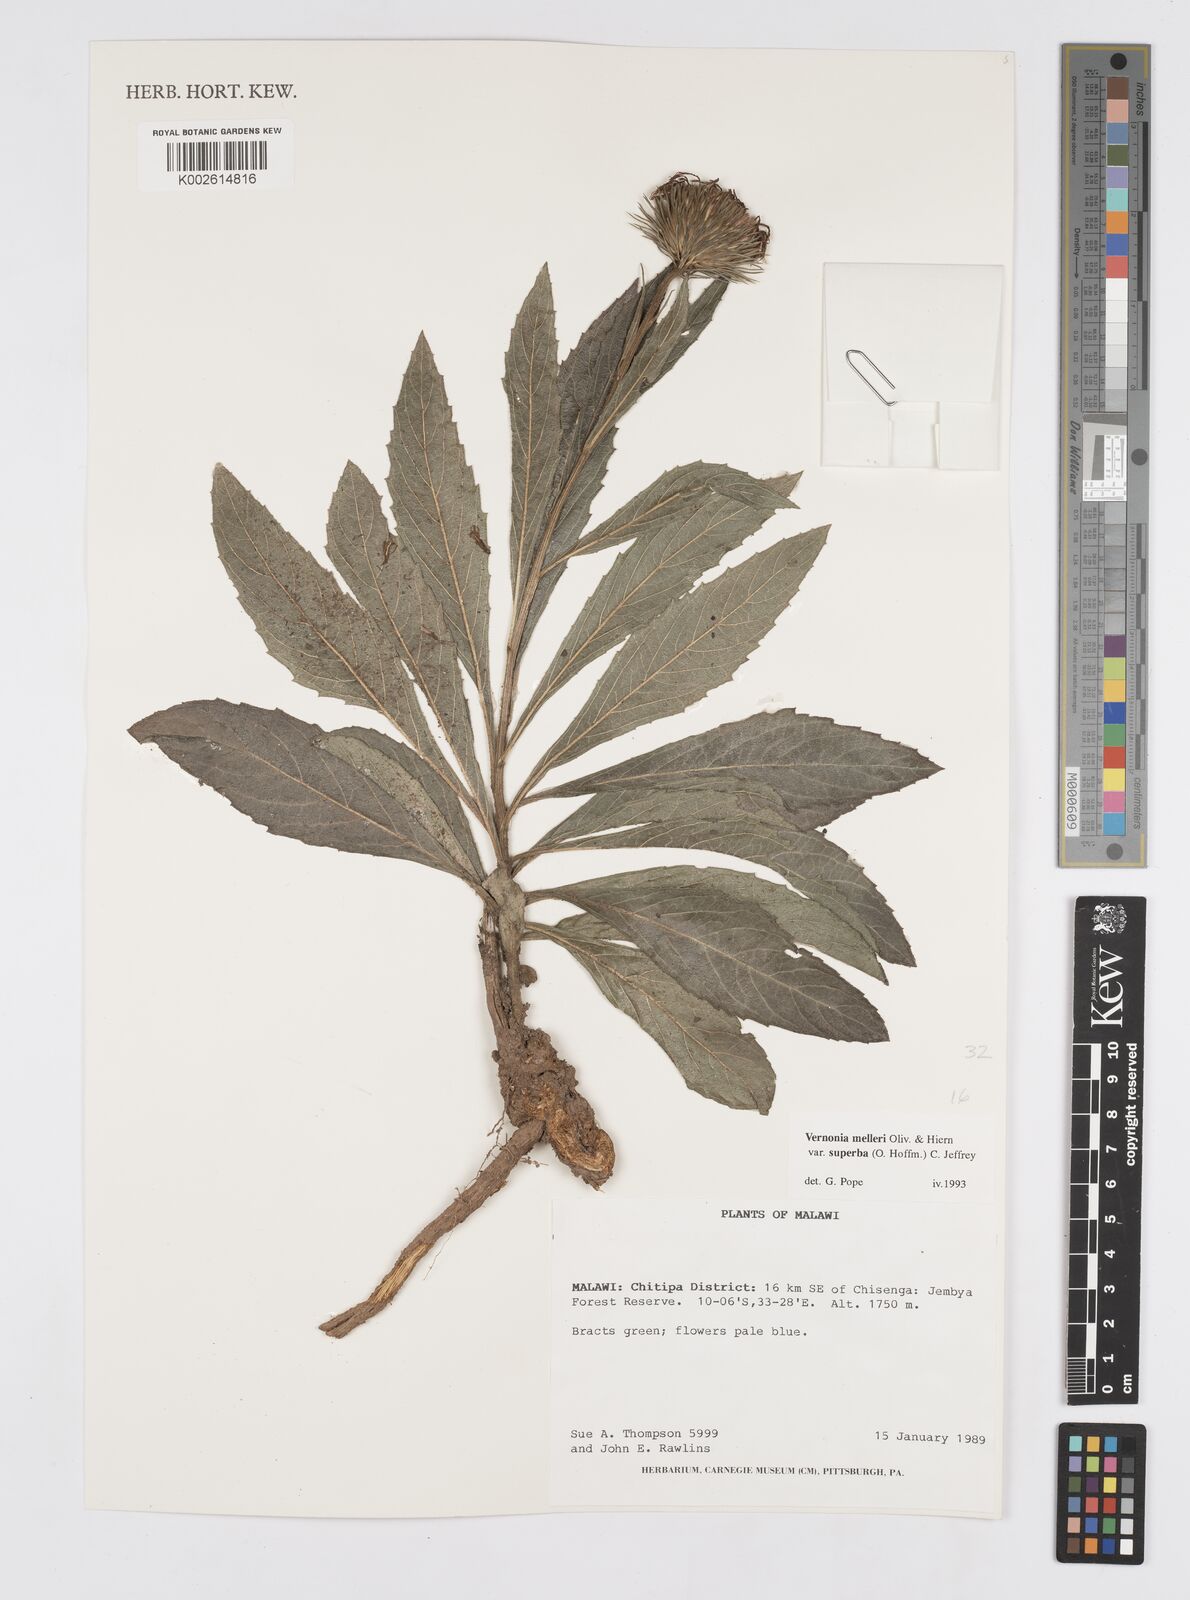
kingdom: Plantae
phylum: Tracheophyta
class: Magnoliopsida
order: Asterales
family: Asteraceae
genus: Linzia
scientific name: Linzia melleri
